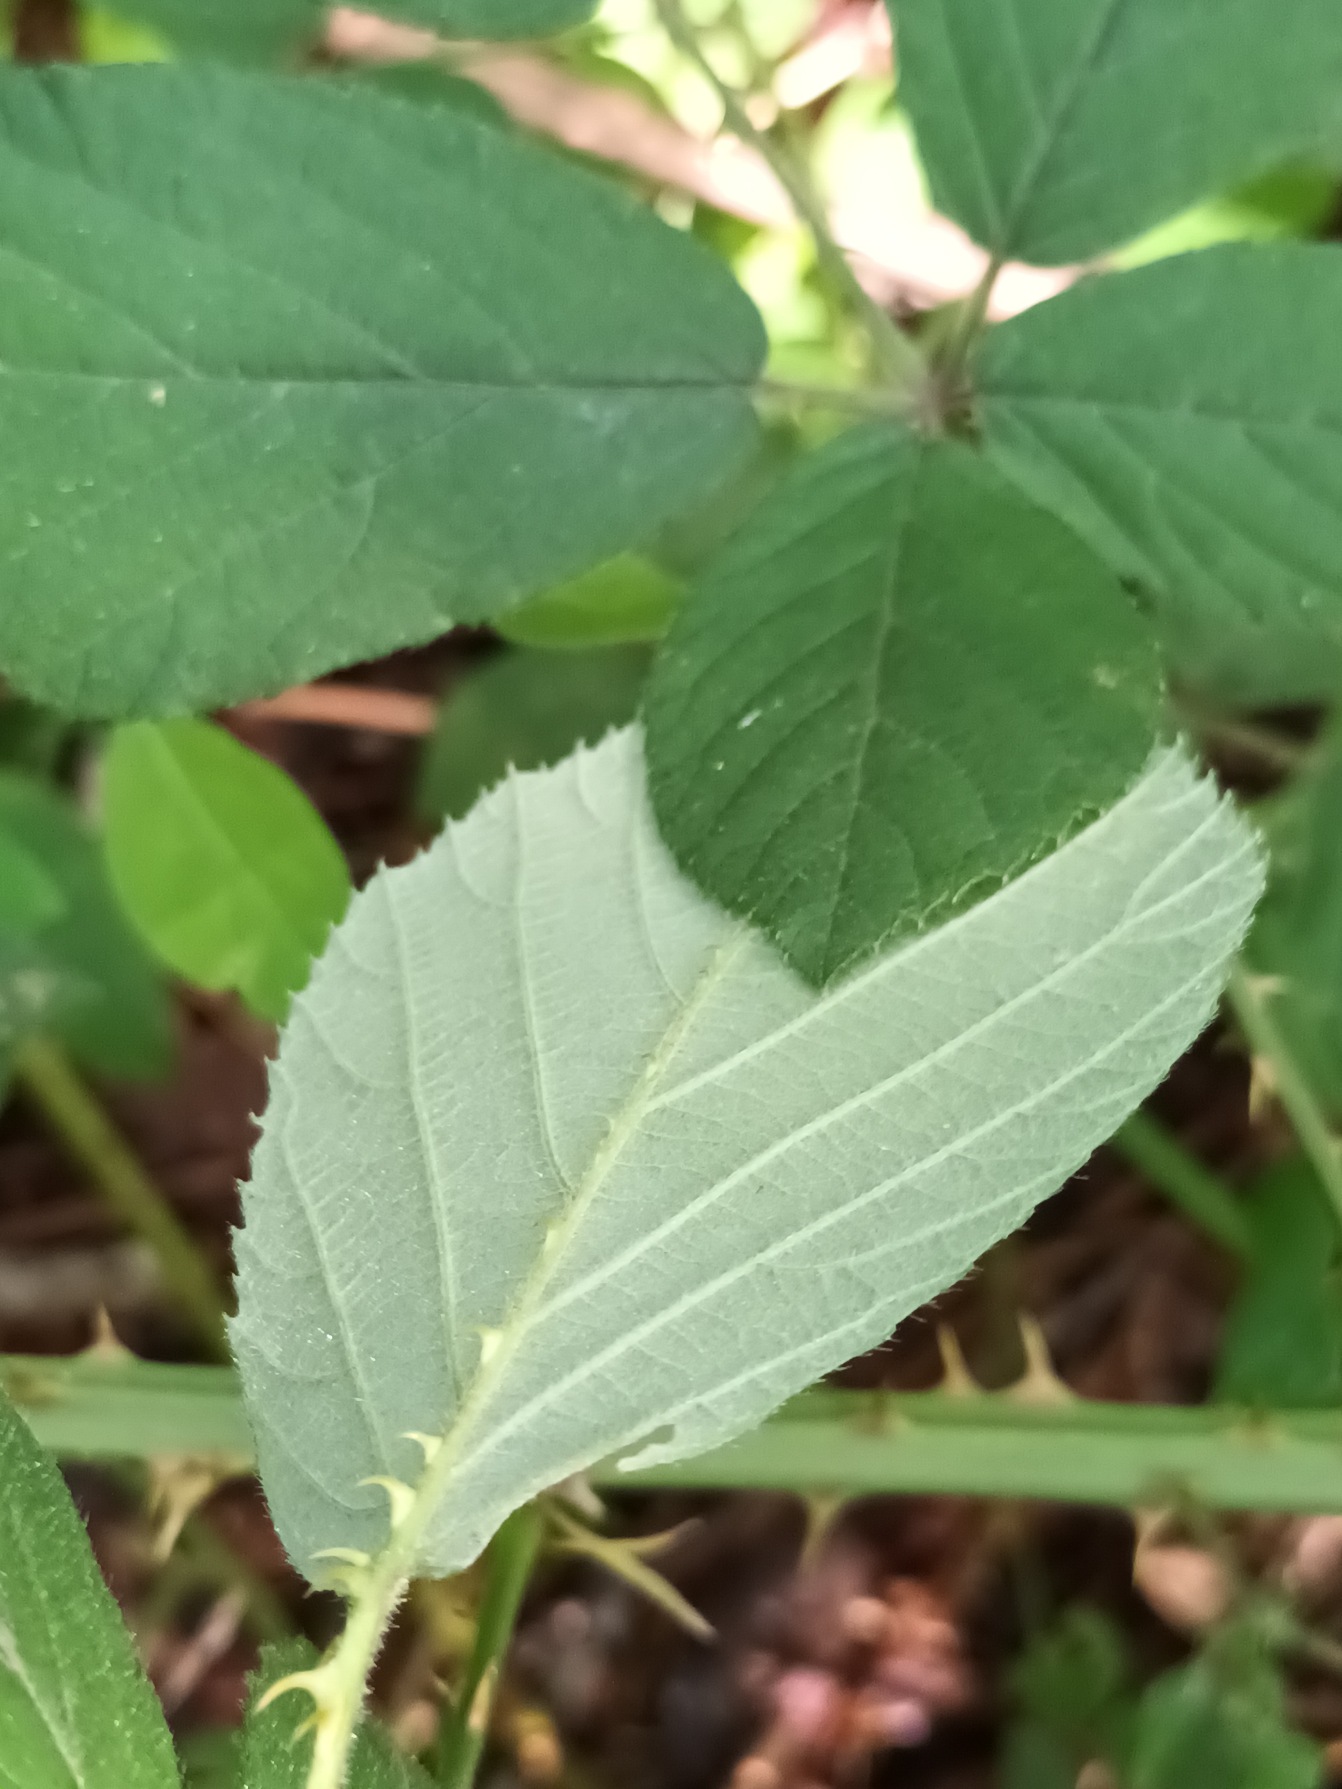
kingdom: Plantae
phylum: Tracheophyta
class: Magnoliopsida
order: Rosales
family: Rosaceae
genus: Rubus
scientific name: Rubus lindebergii
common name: Lindebergs brombær
